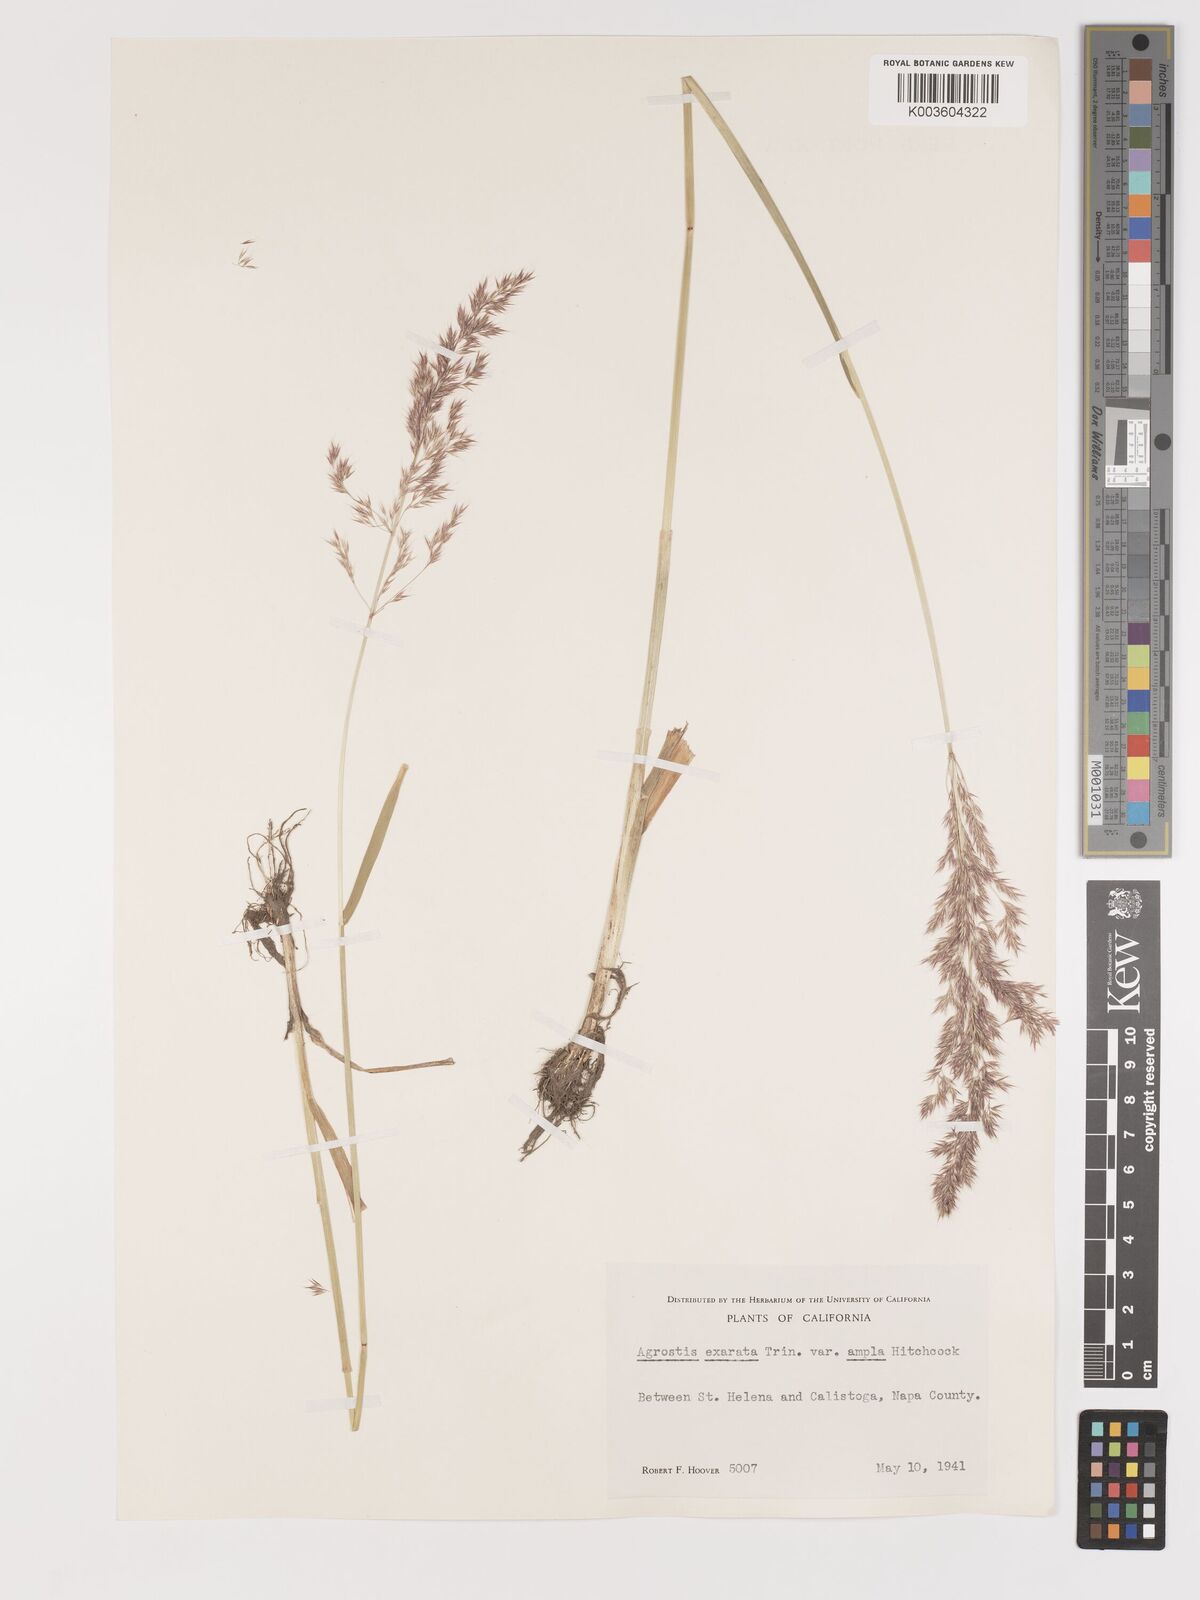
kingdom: Plantae
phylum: Tracheophyta
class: Liliopsida
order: Poales
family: Poaceae
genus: Agrostis
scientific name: Agrostis exarata
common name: Spike bent
